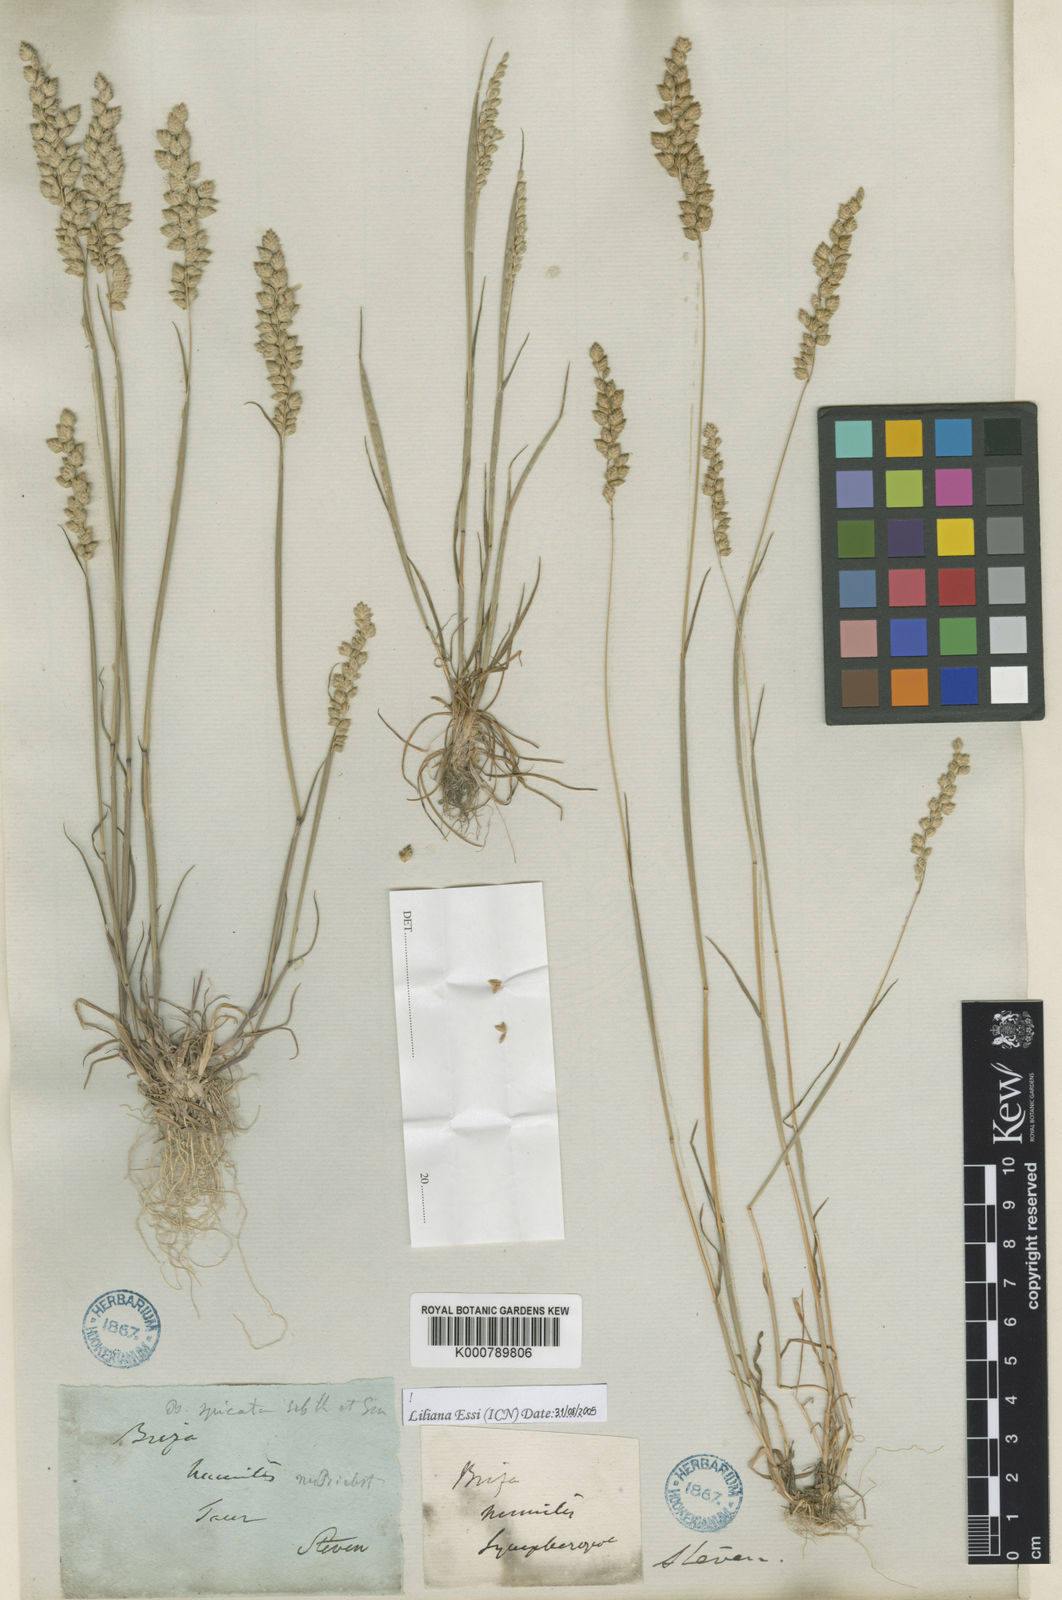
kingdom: Plantae
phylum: Tracheophyta
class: Liliopsida
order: Poales
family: Poaceae
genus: Briza
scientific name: Briza humilis
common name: Spiked quaking grass
